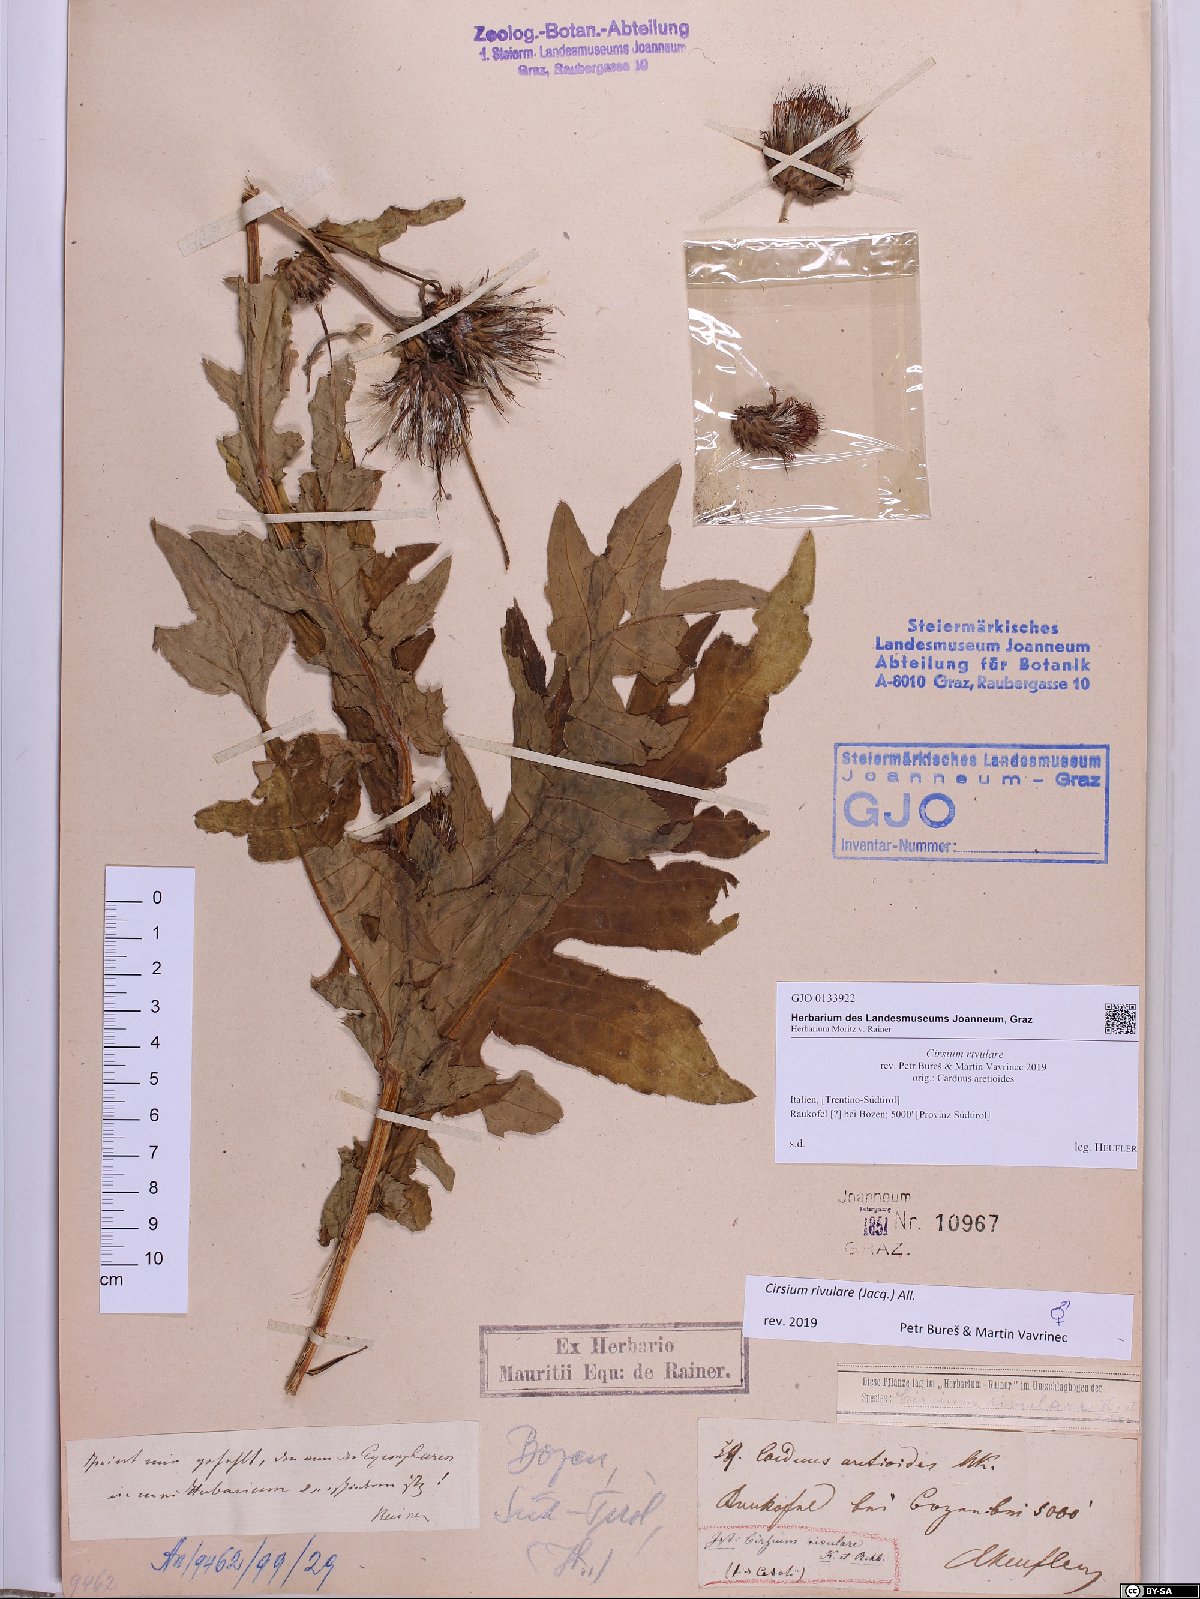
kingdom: Plantae
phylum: Tracheophyta
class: Magnoliopsida
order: Asterales
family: Asteraceae
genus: Cirsium
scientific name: Cirsium rivulare
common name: Brook thistle
